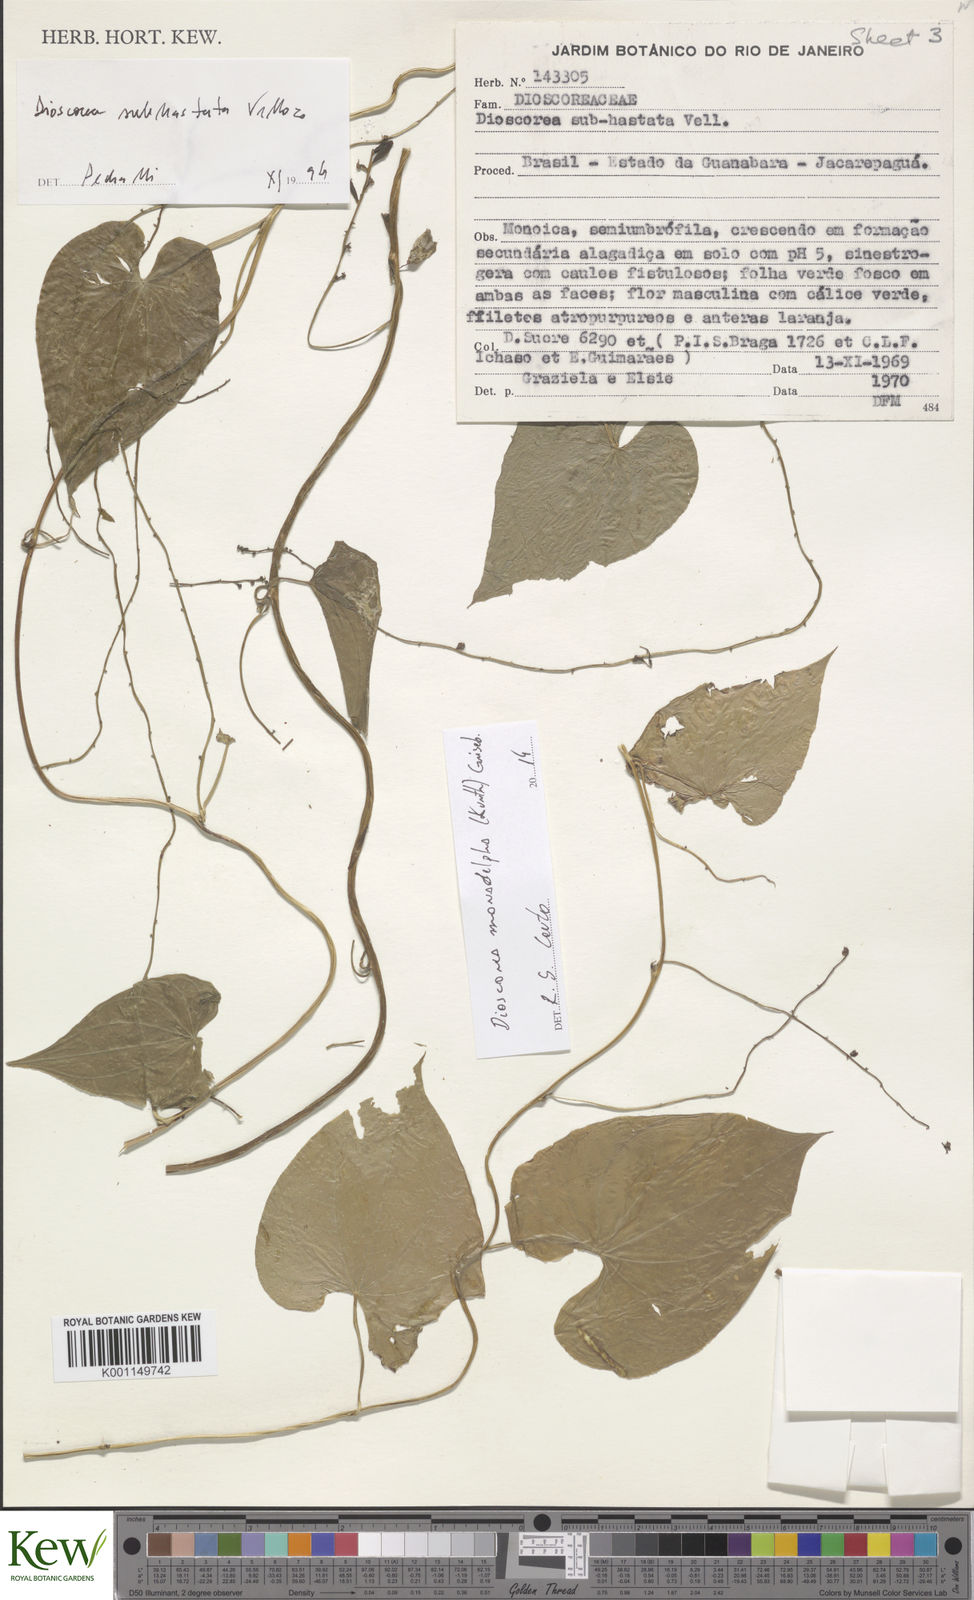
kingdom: Plantae
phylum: Tracheophyta
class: Liliopsida
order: Dioscoreales
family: Dioscoreaceae
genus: Dioscorea
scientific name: Dioscorea monadelpha
